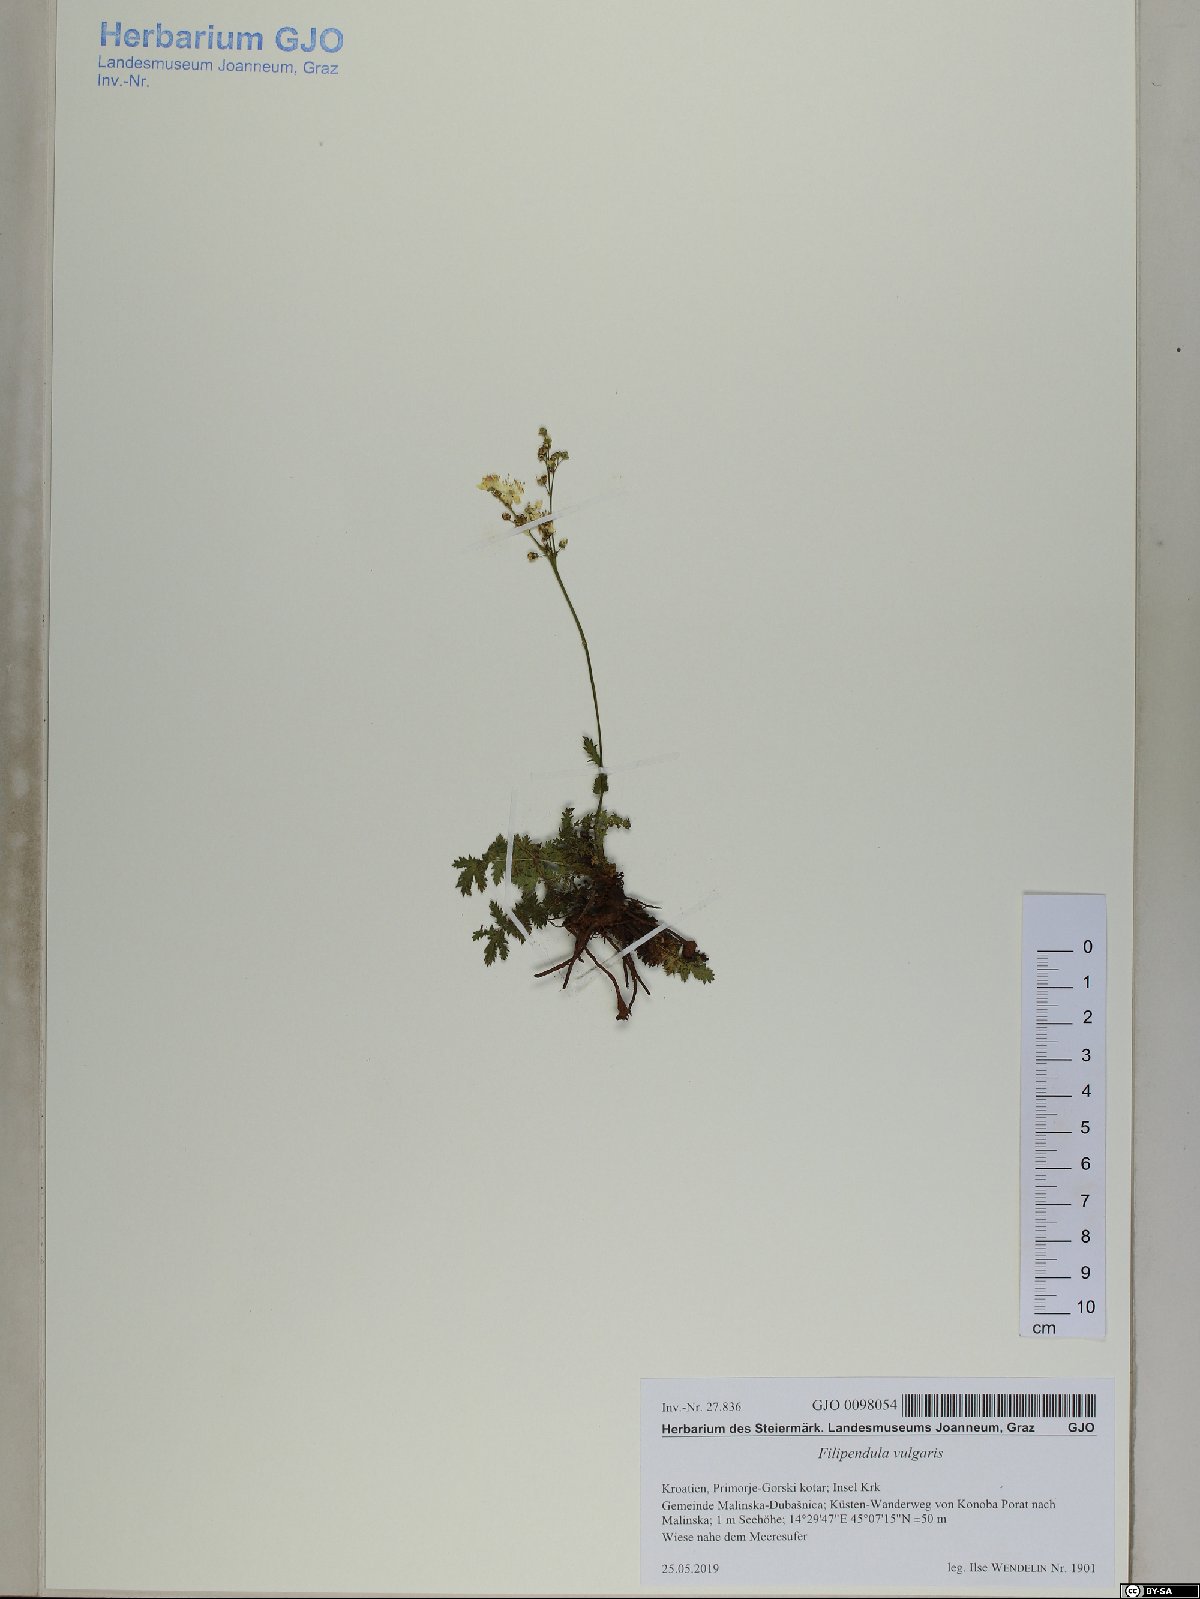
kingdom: Plantae
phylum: Tracheophyta
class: Magnoliopsida
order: Rosales
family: Rosaceae
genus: Filipendula
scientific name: Filipendula vulgaris
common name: Dropwort
